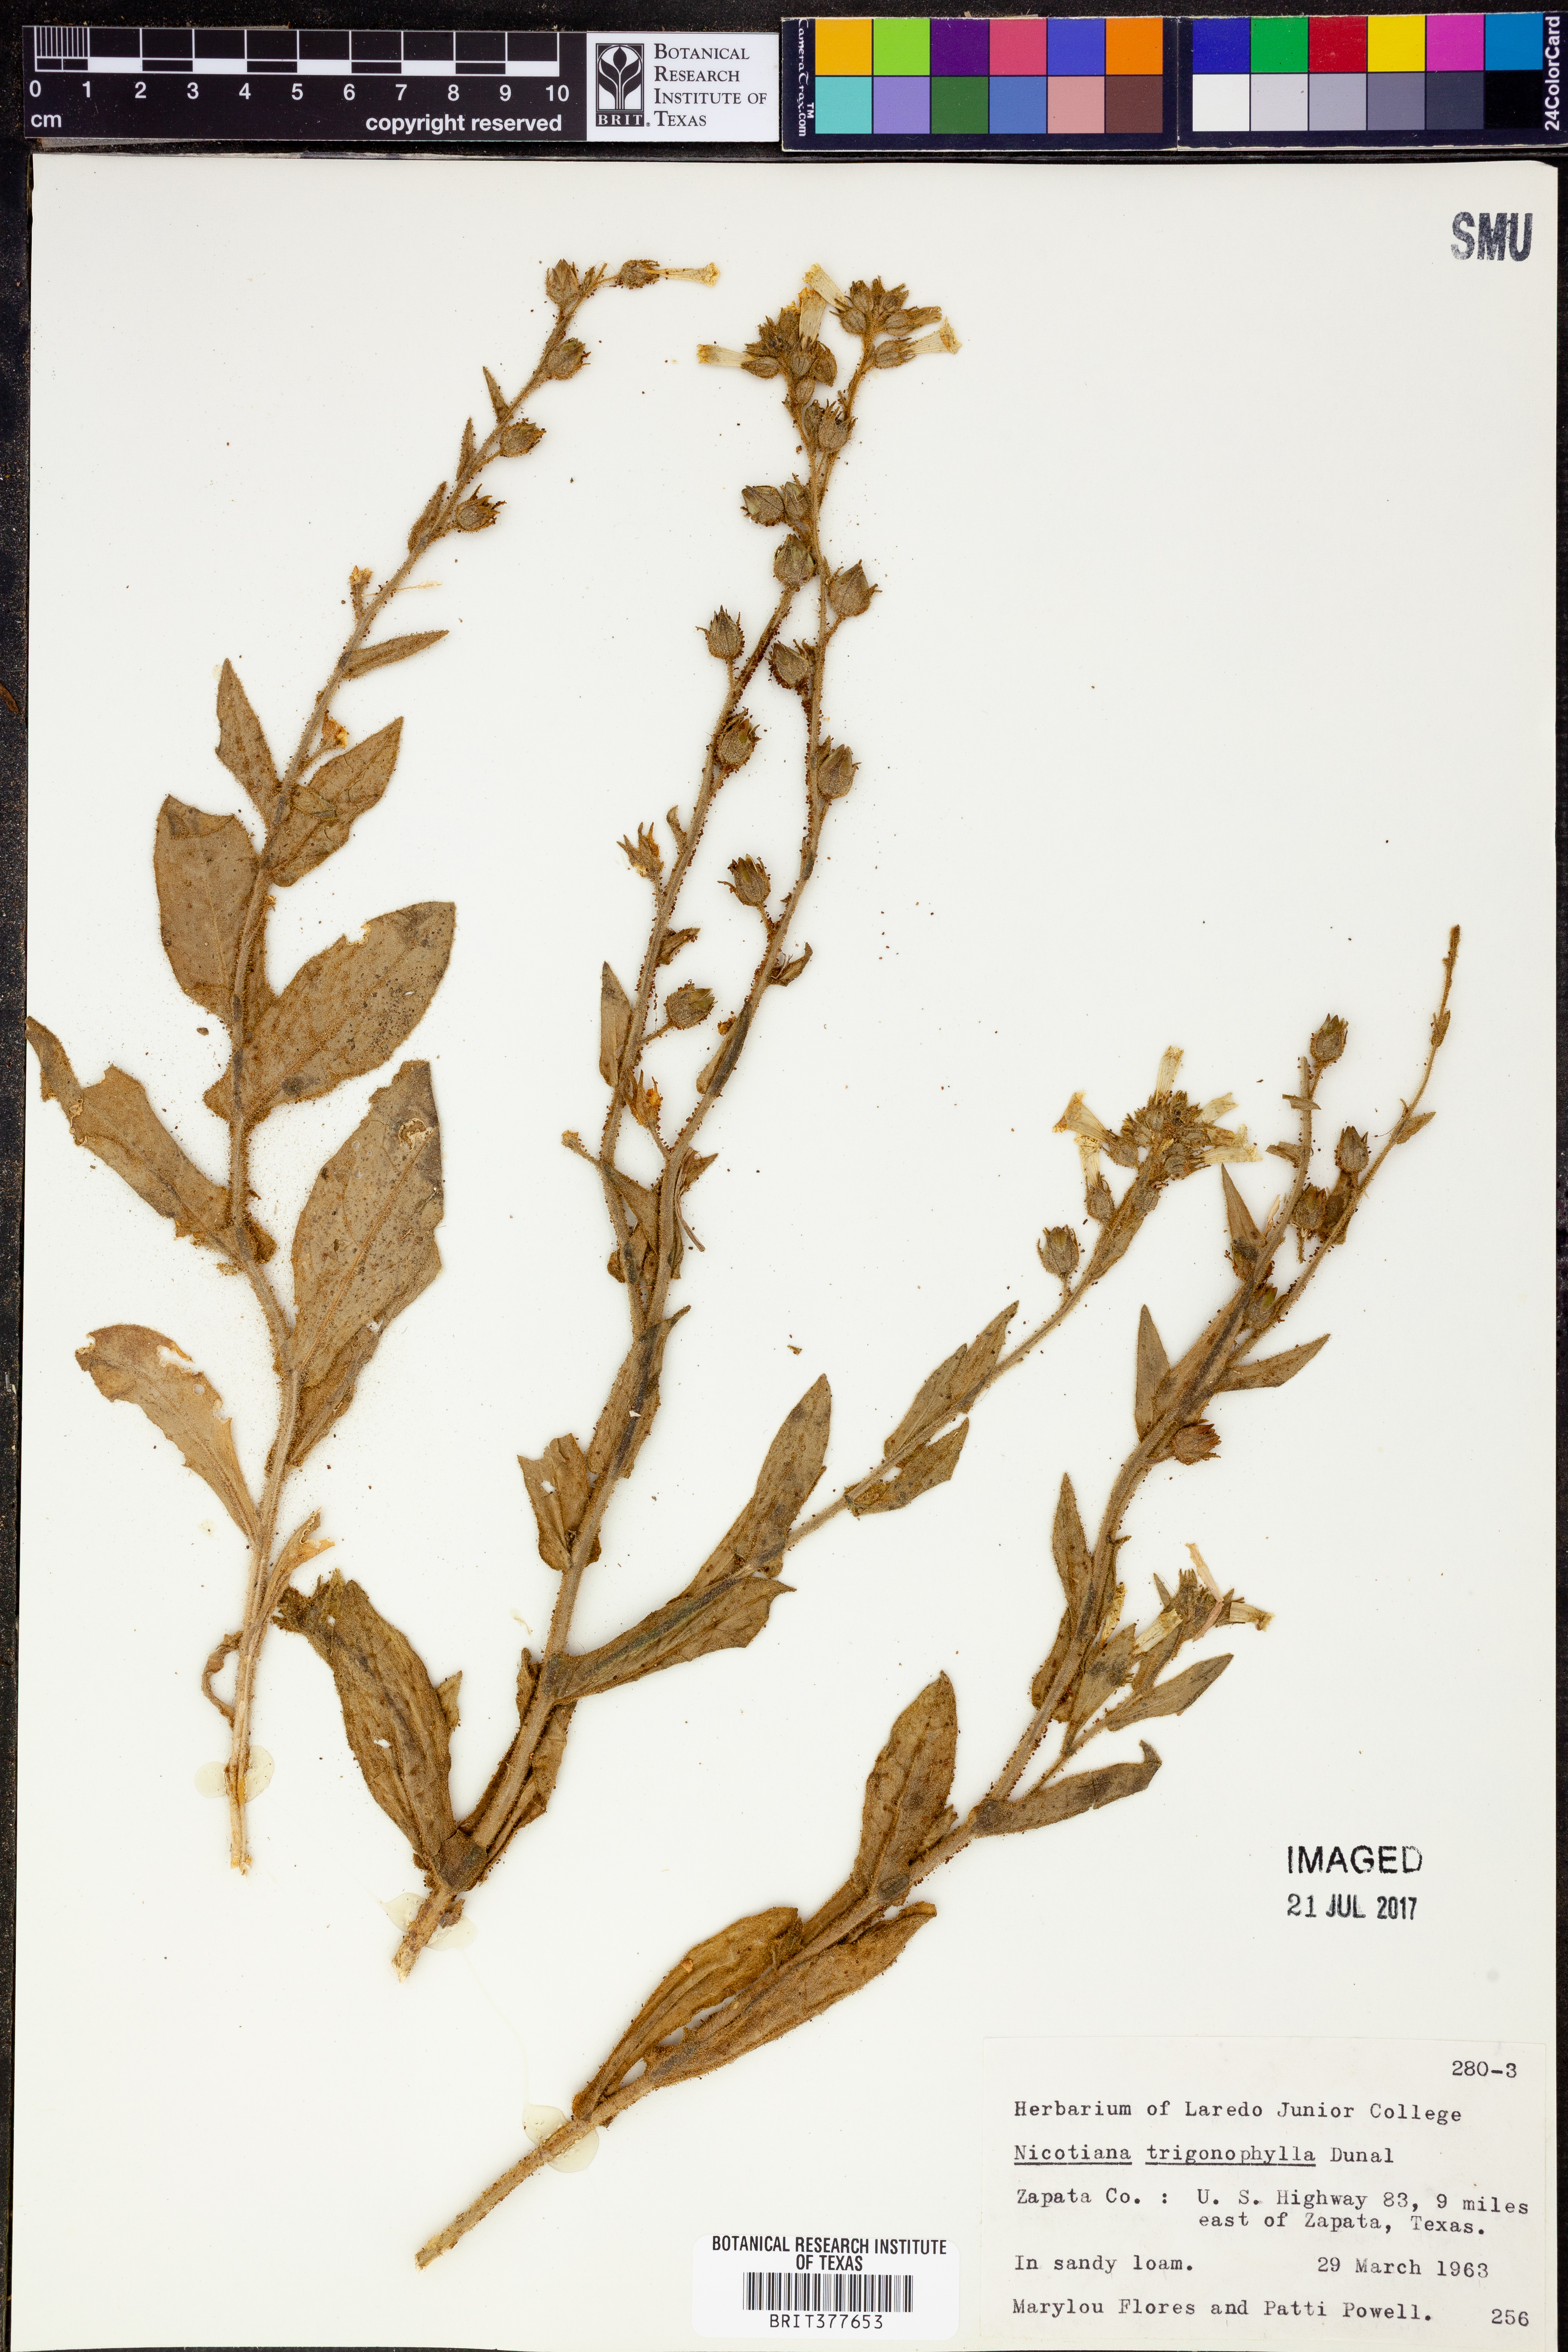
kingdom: Plantae
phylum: Tracheophyta
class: Magnoliopsida
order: Solanales
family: Solanaceae
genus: Nicotiana
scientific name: Nicotiana obtusifolia
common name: Desert tobacco
